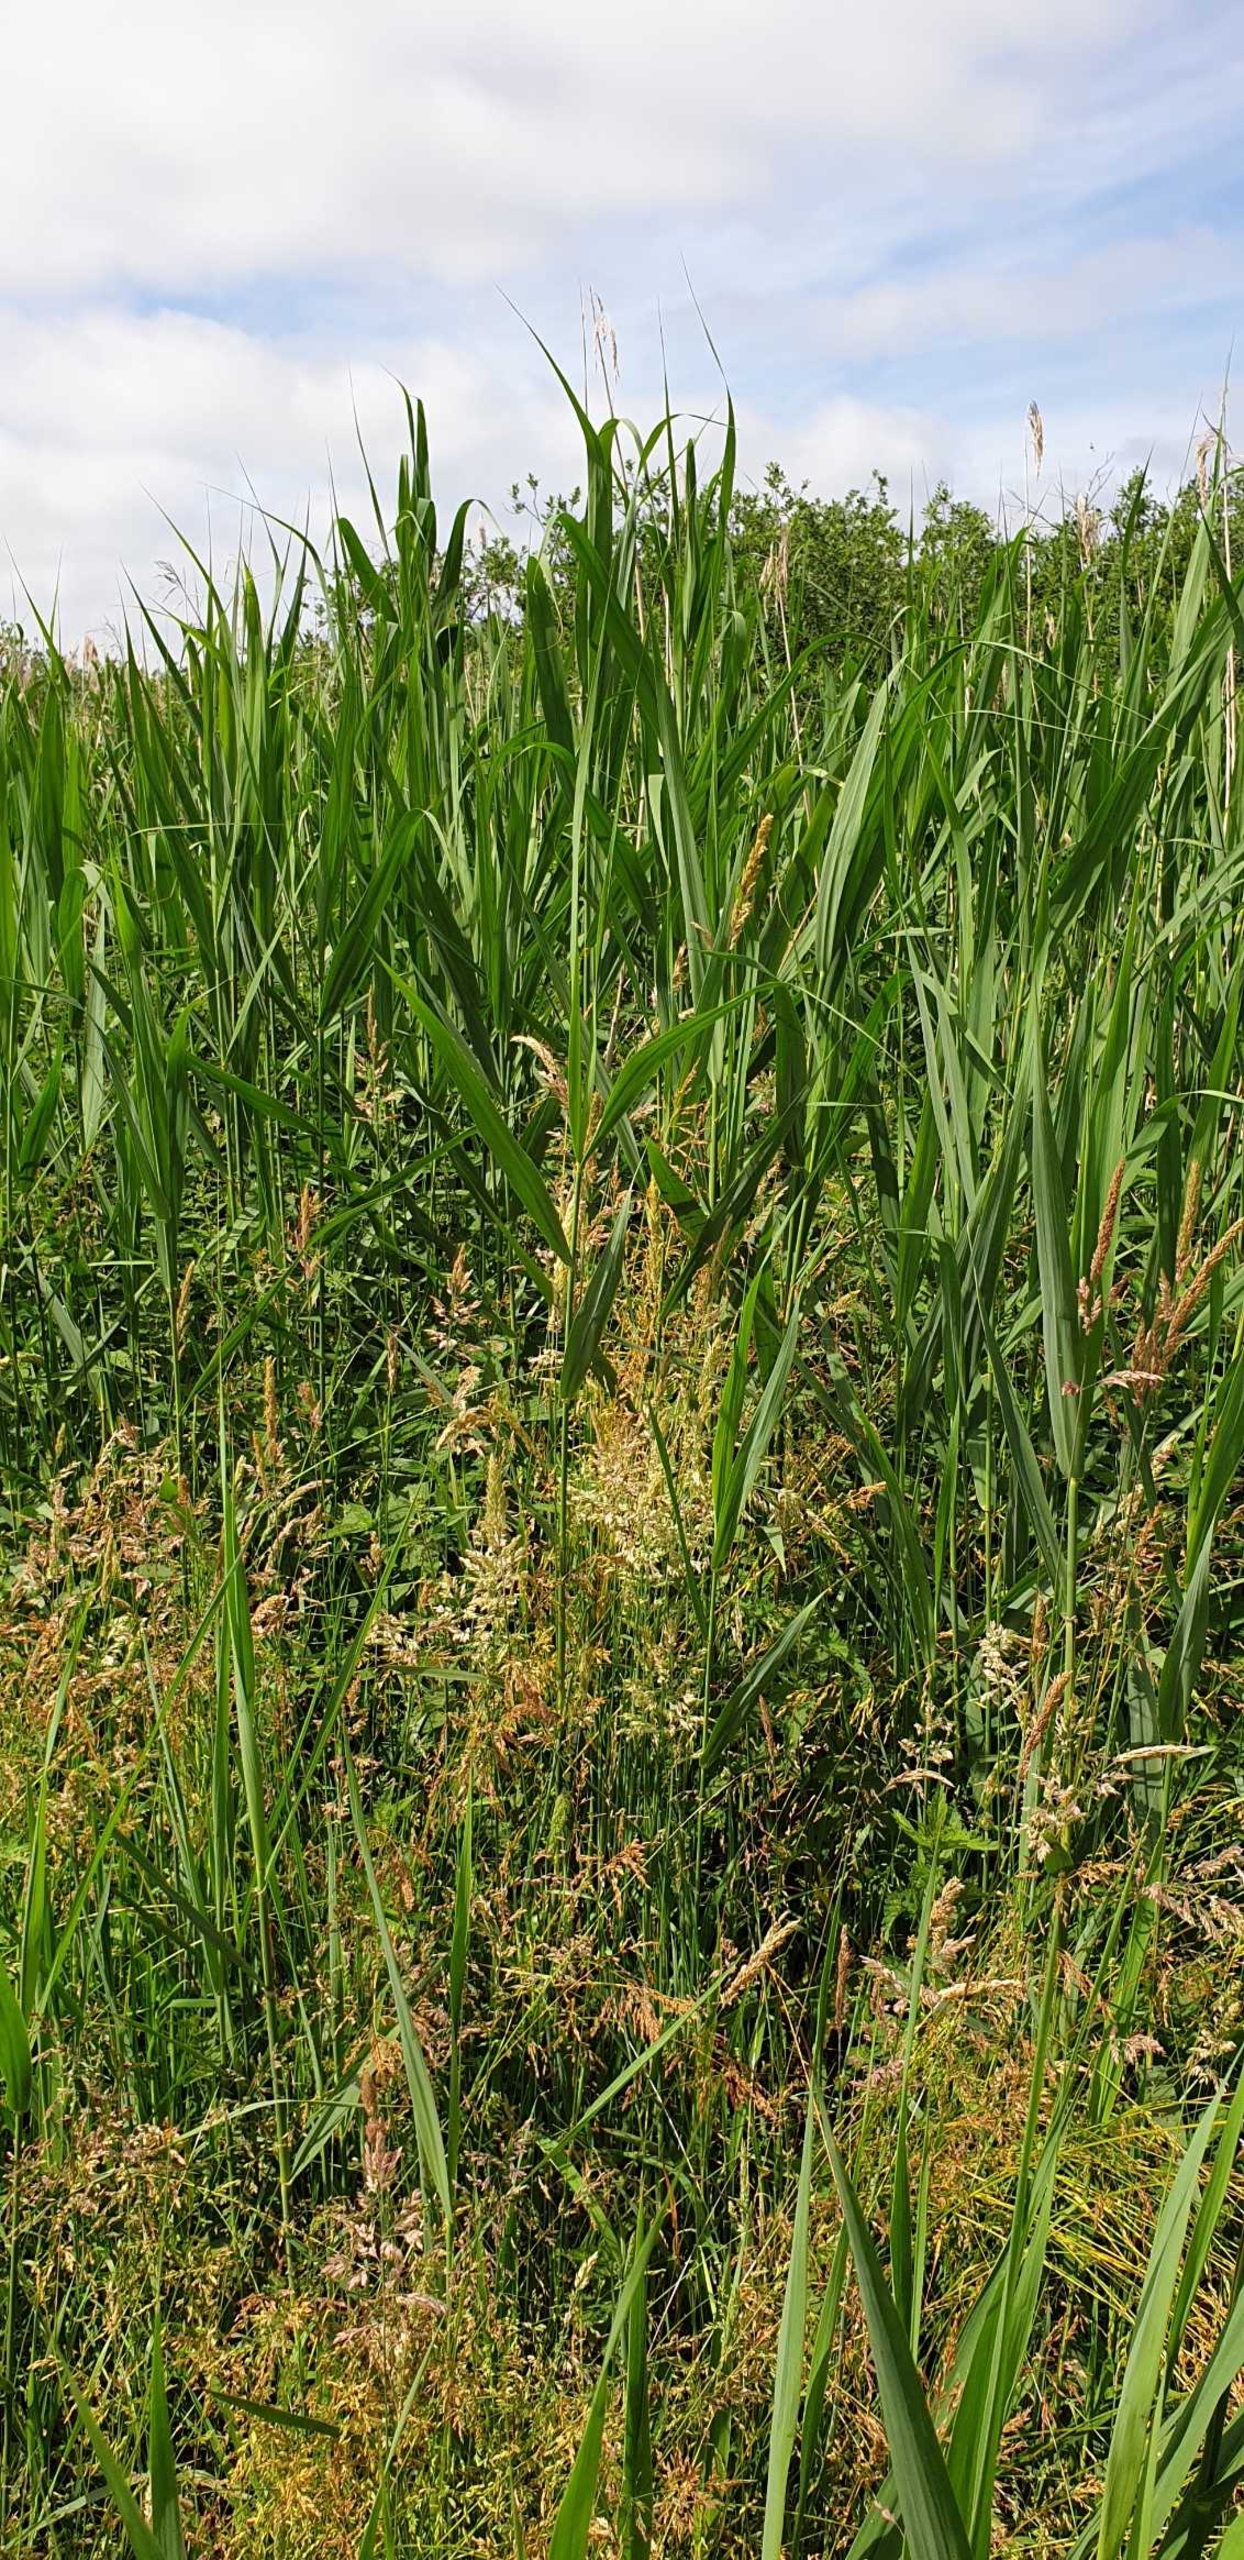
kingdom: Plantae
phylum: Tracheophyta
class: Liliopsida
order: Poales
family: Poaceae
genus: Phragmites
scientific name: Phragmites australis
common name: Tagrør
